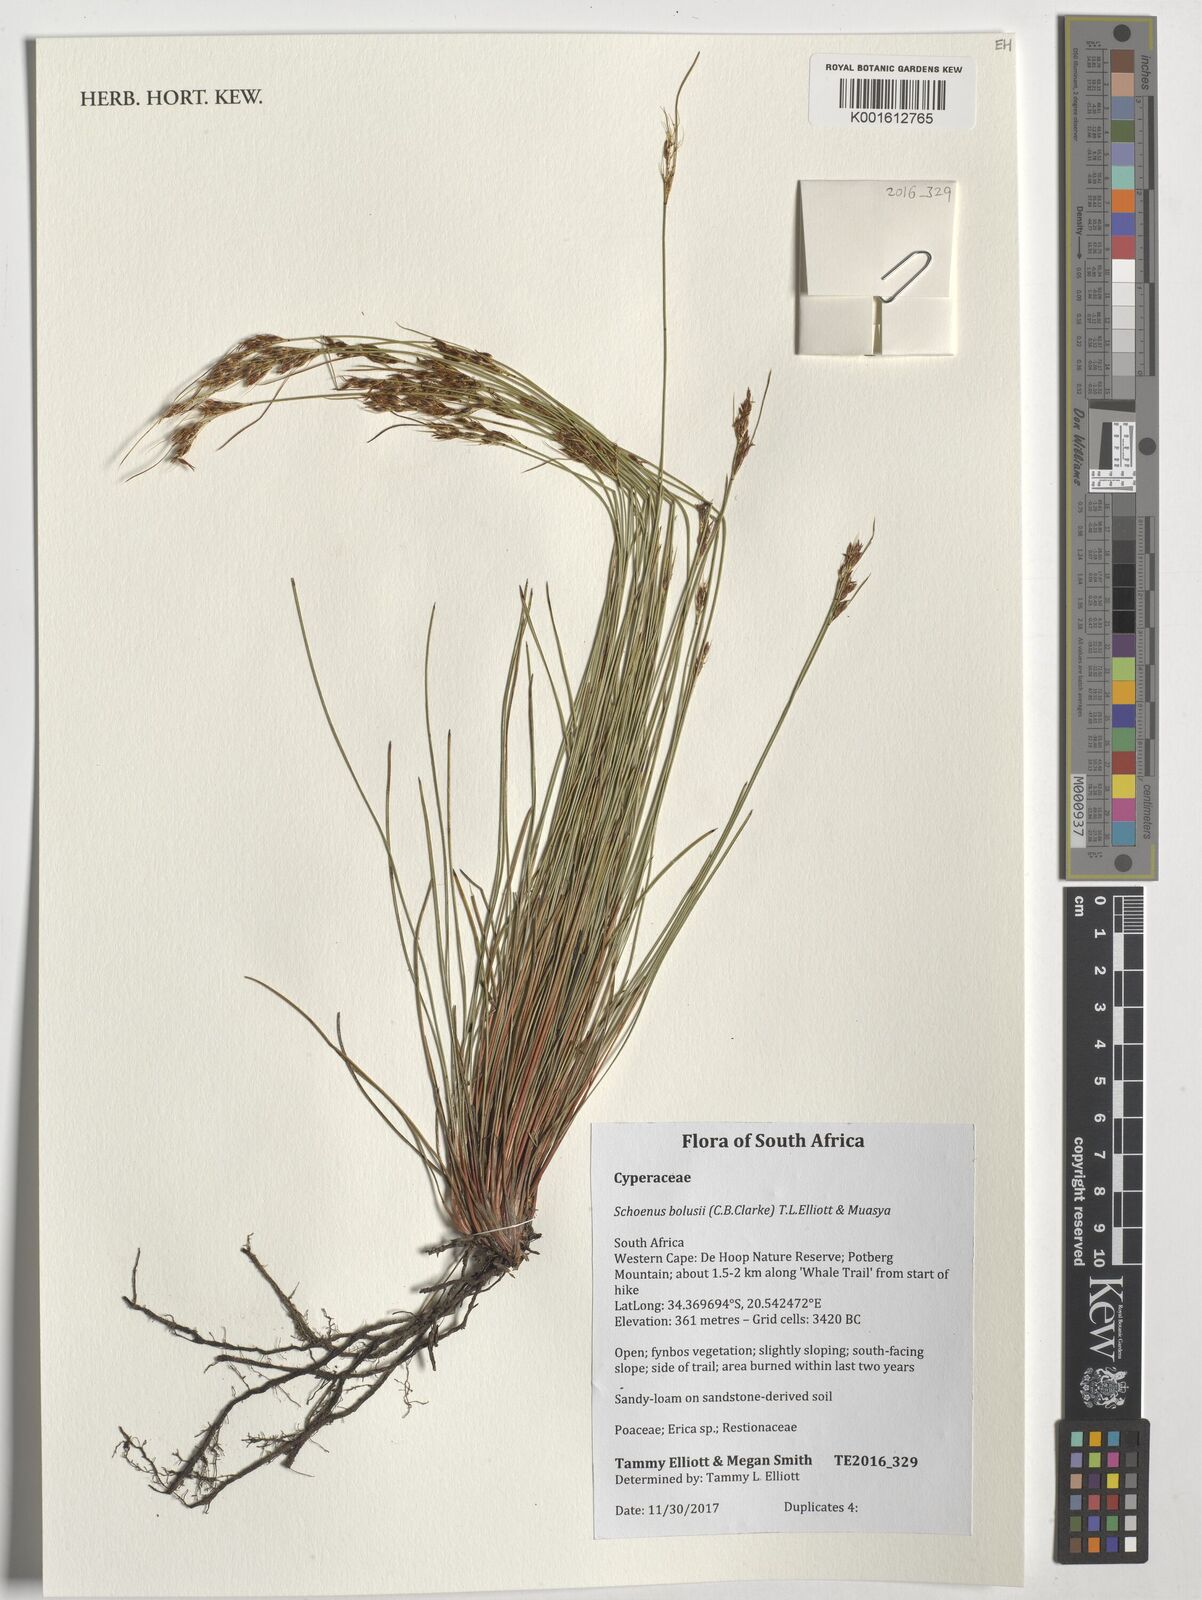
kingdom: Plantae
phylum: Tracheophyta
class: Liliopsida
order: Poales
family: Cyperaceae
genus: Schoenus
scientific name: Schoenus bolusii
